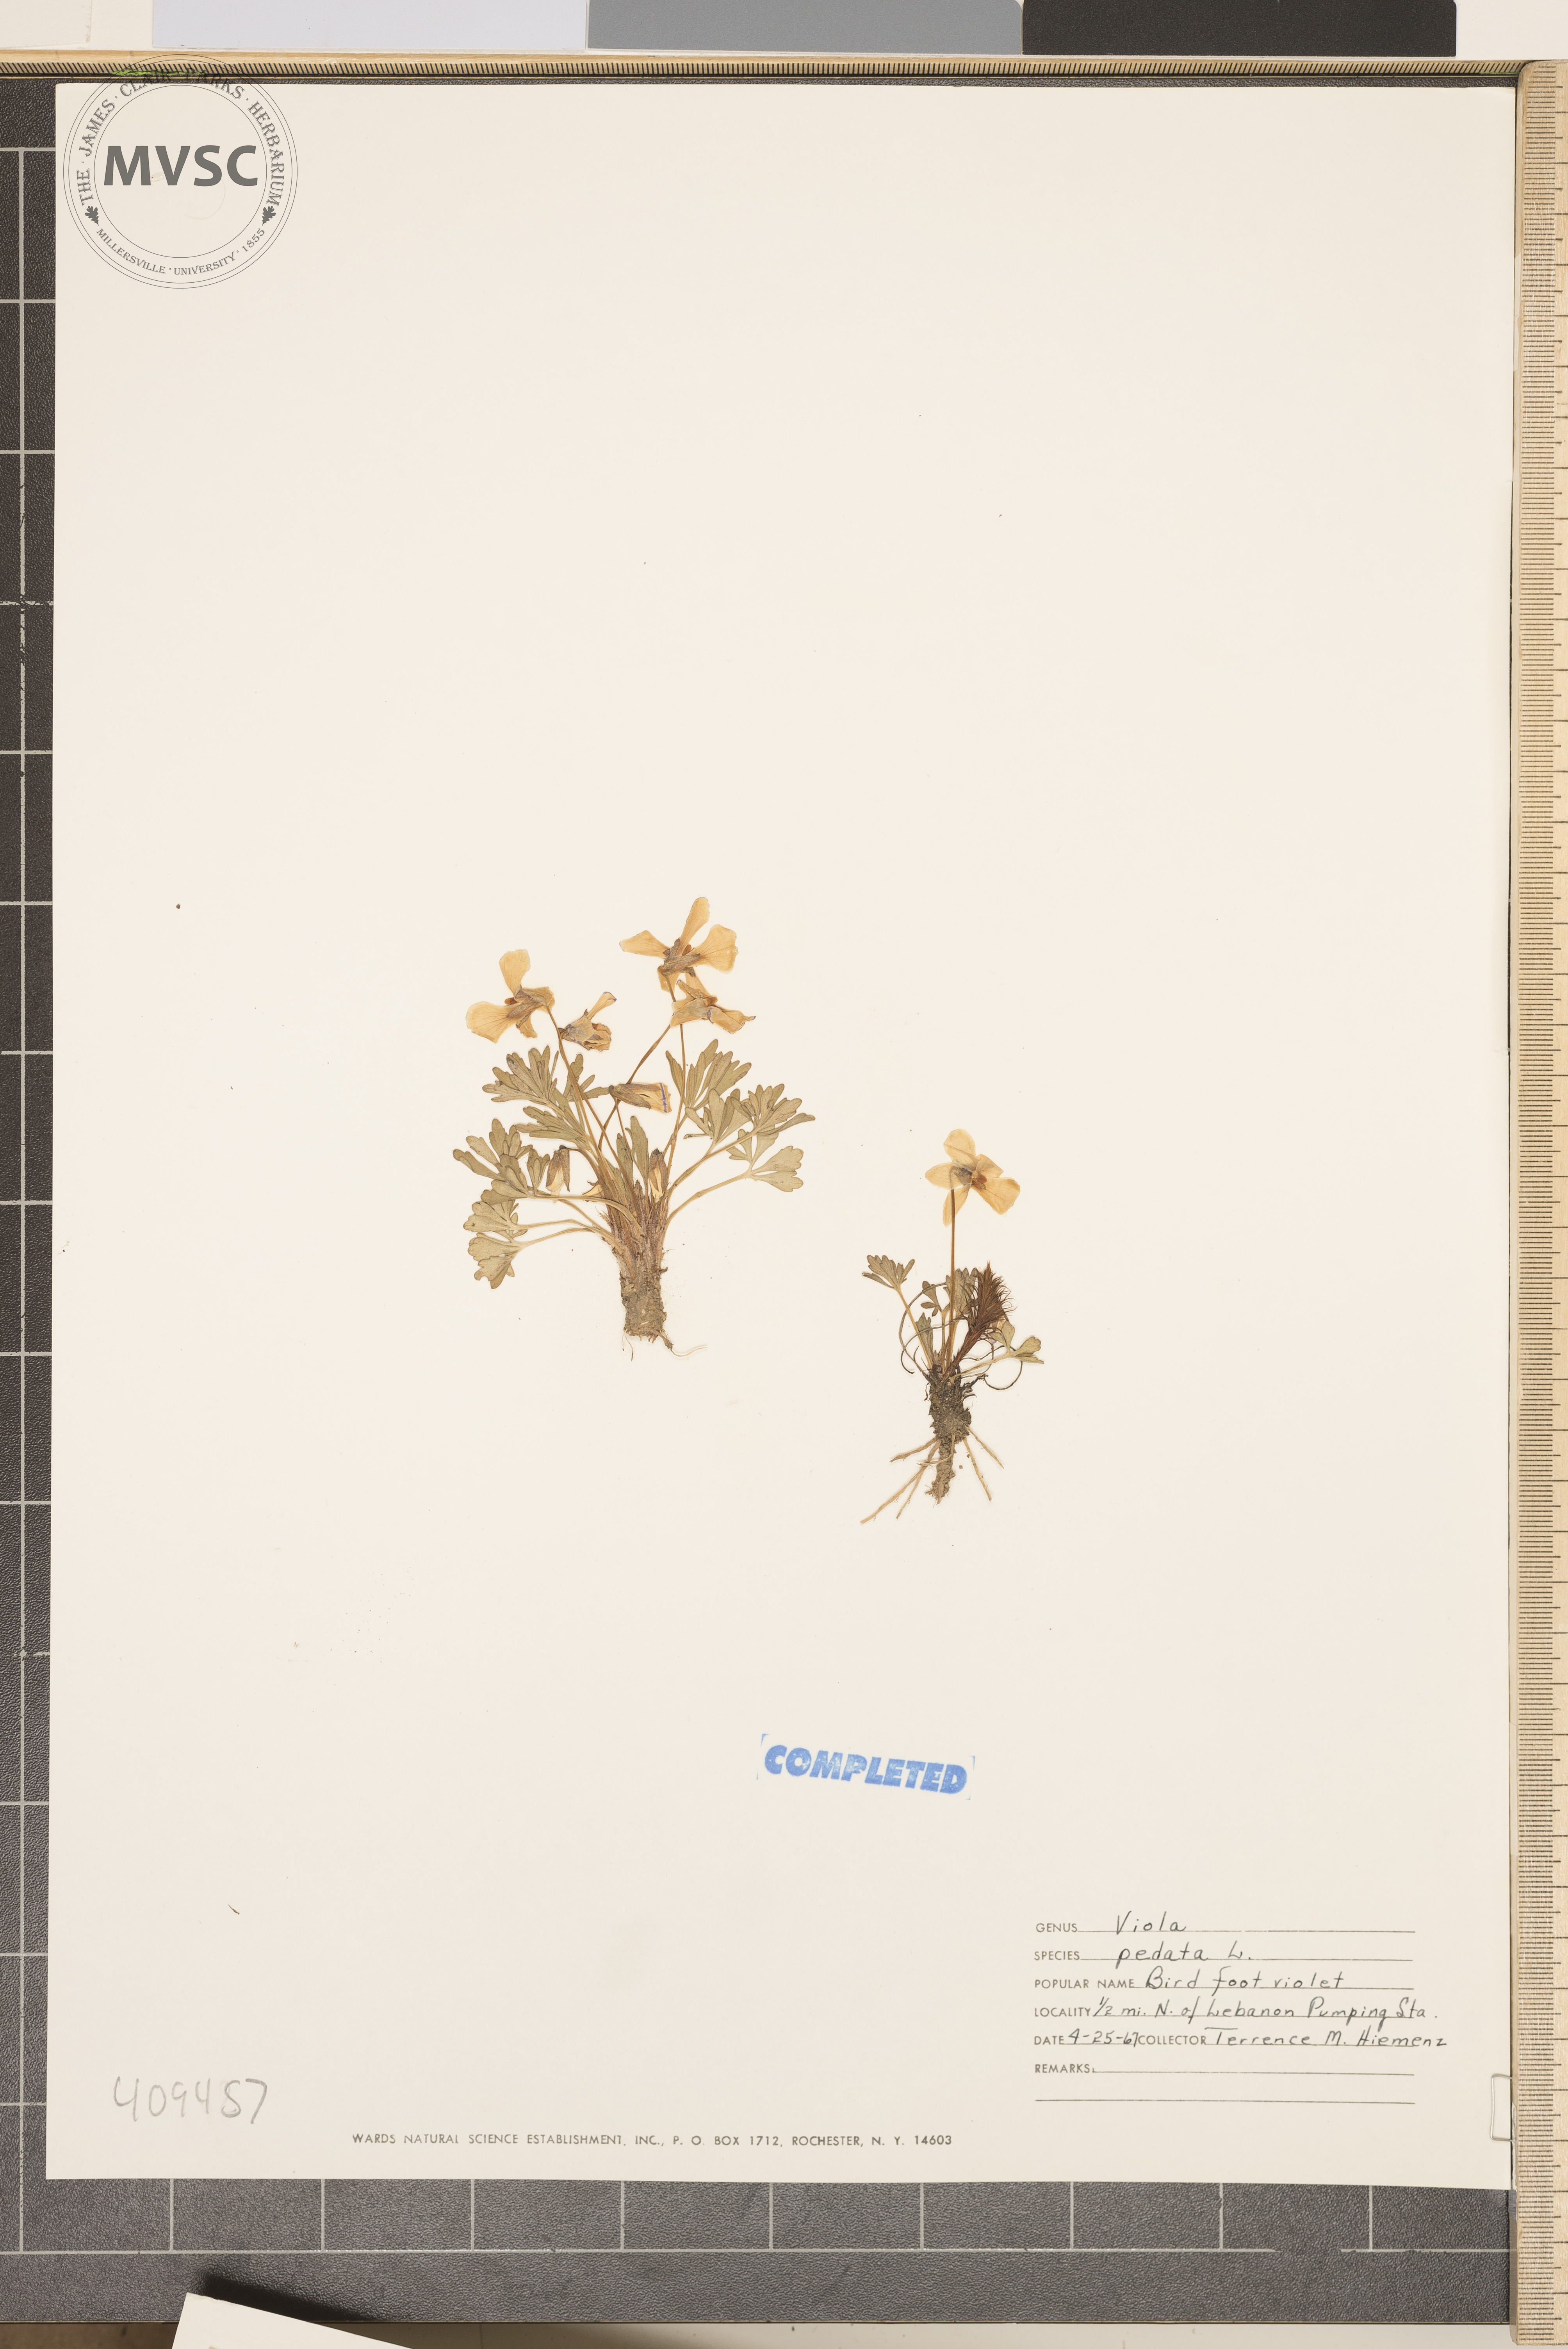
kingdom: Plantae
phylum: Tracheophyta
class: Magnoliopsida
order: Malpighiales
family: Violaceae
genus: Viola
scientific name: Viola pedata
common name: Pansy violet
